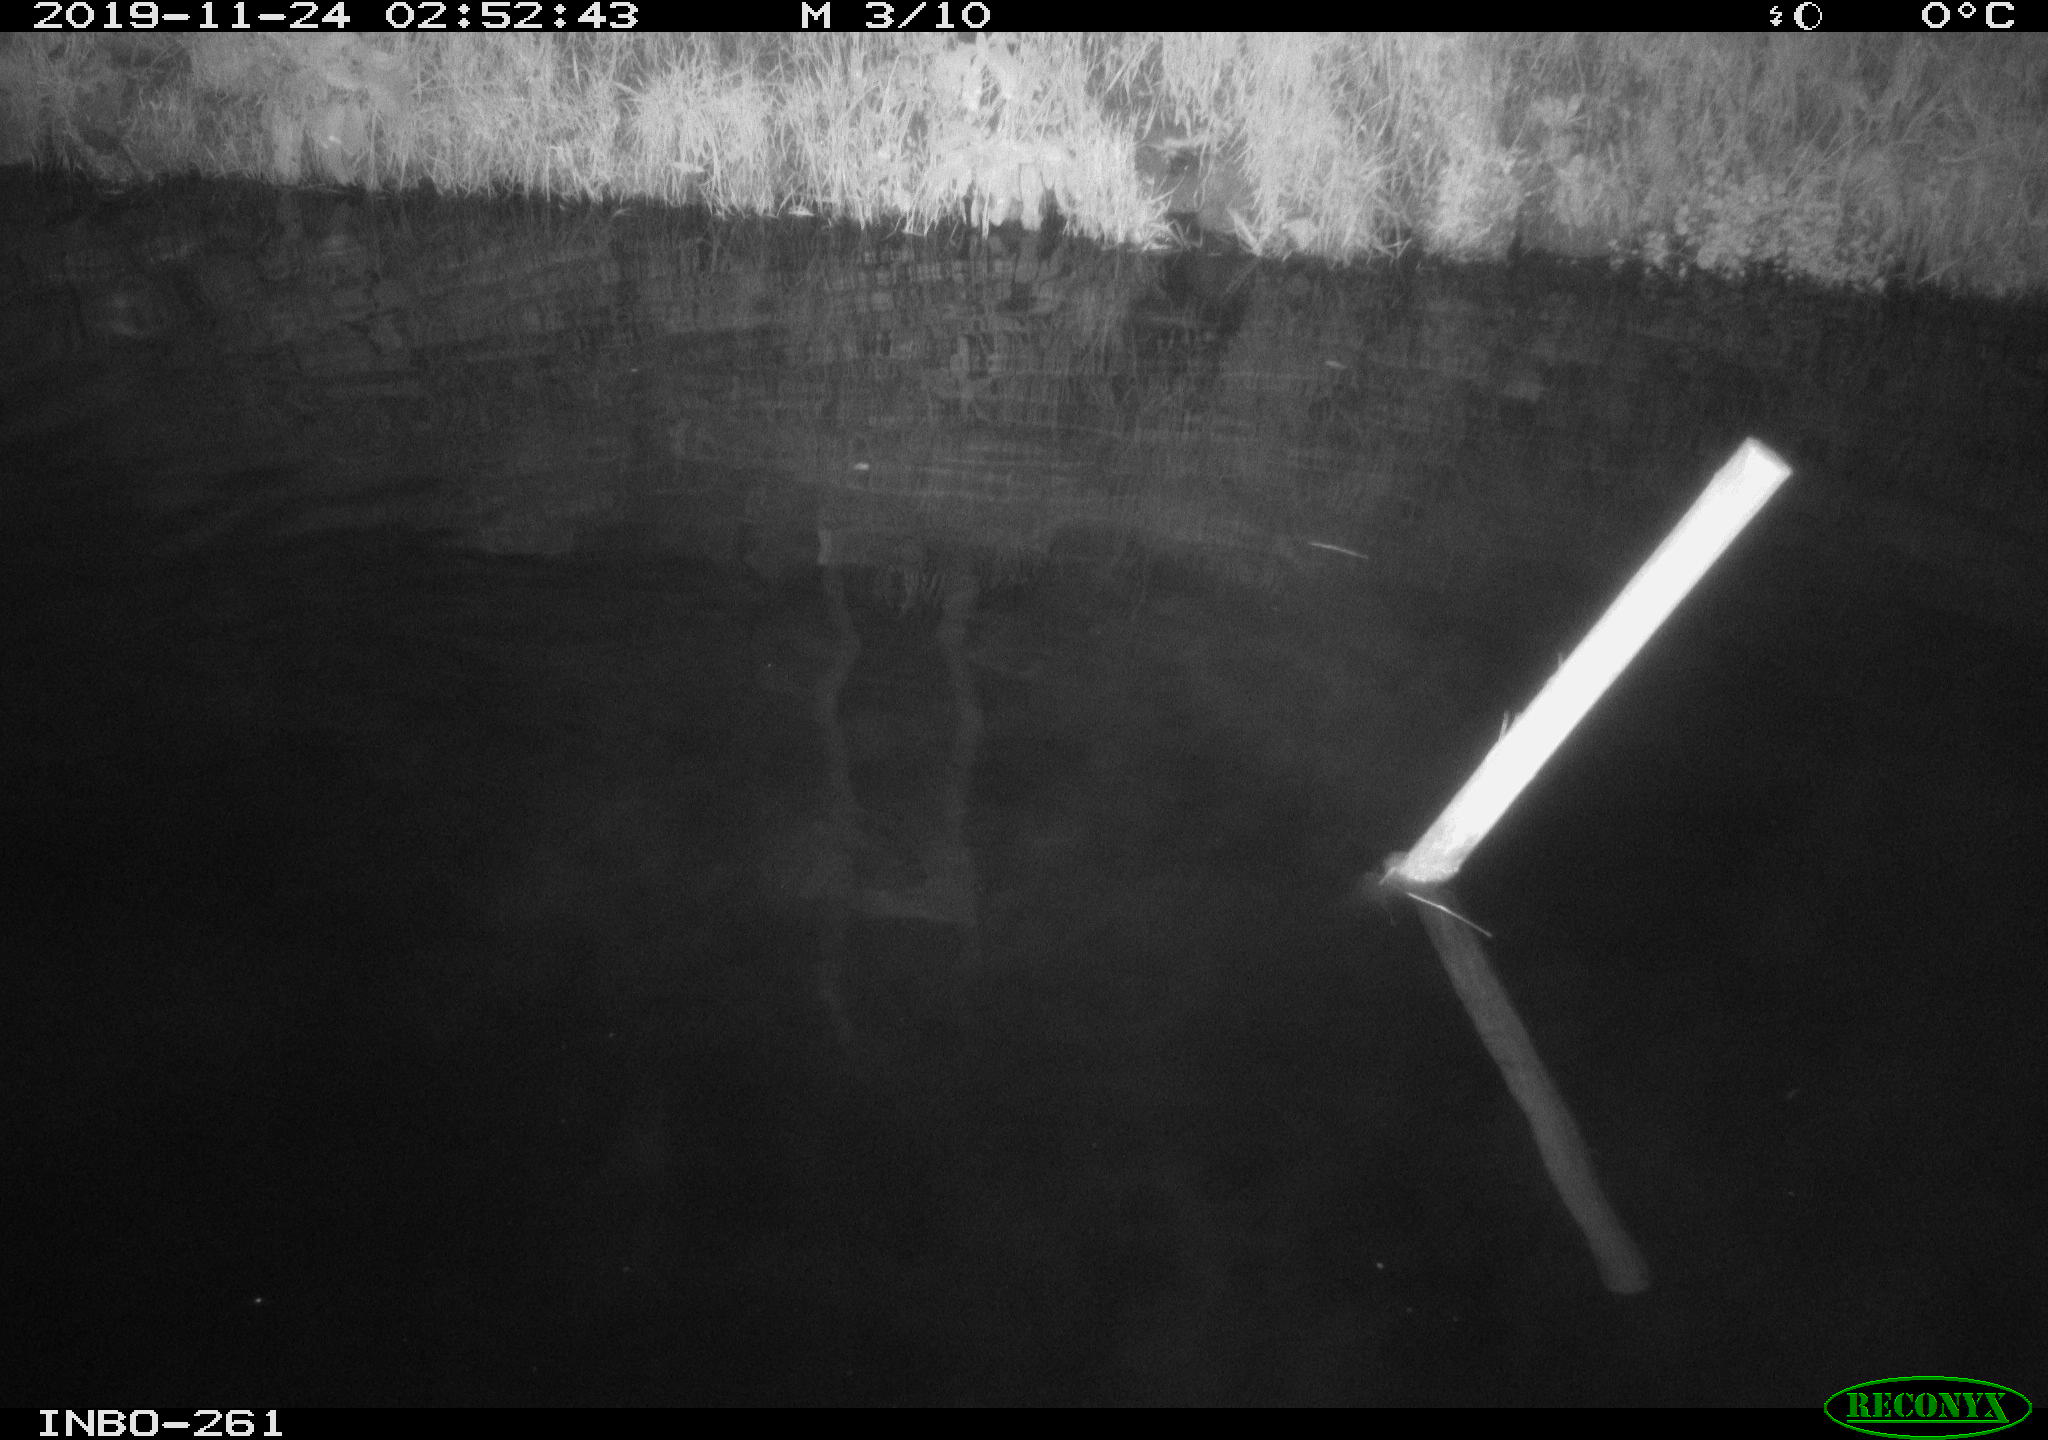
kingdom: Animalia
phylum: Chordata
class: Aves
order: Anseriformes
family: Anatidae
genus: Anas
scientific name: Anas platyrhynchos
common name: Mallard
